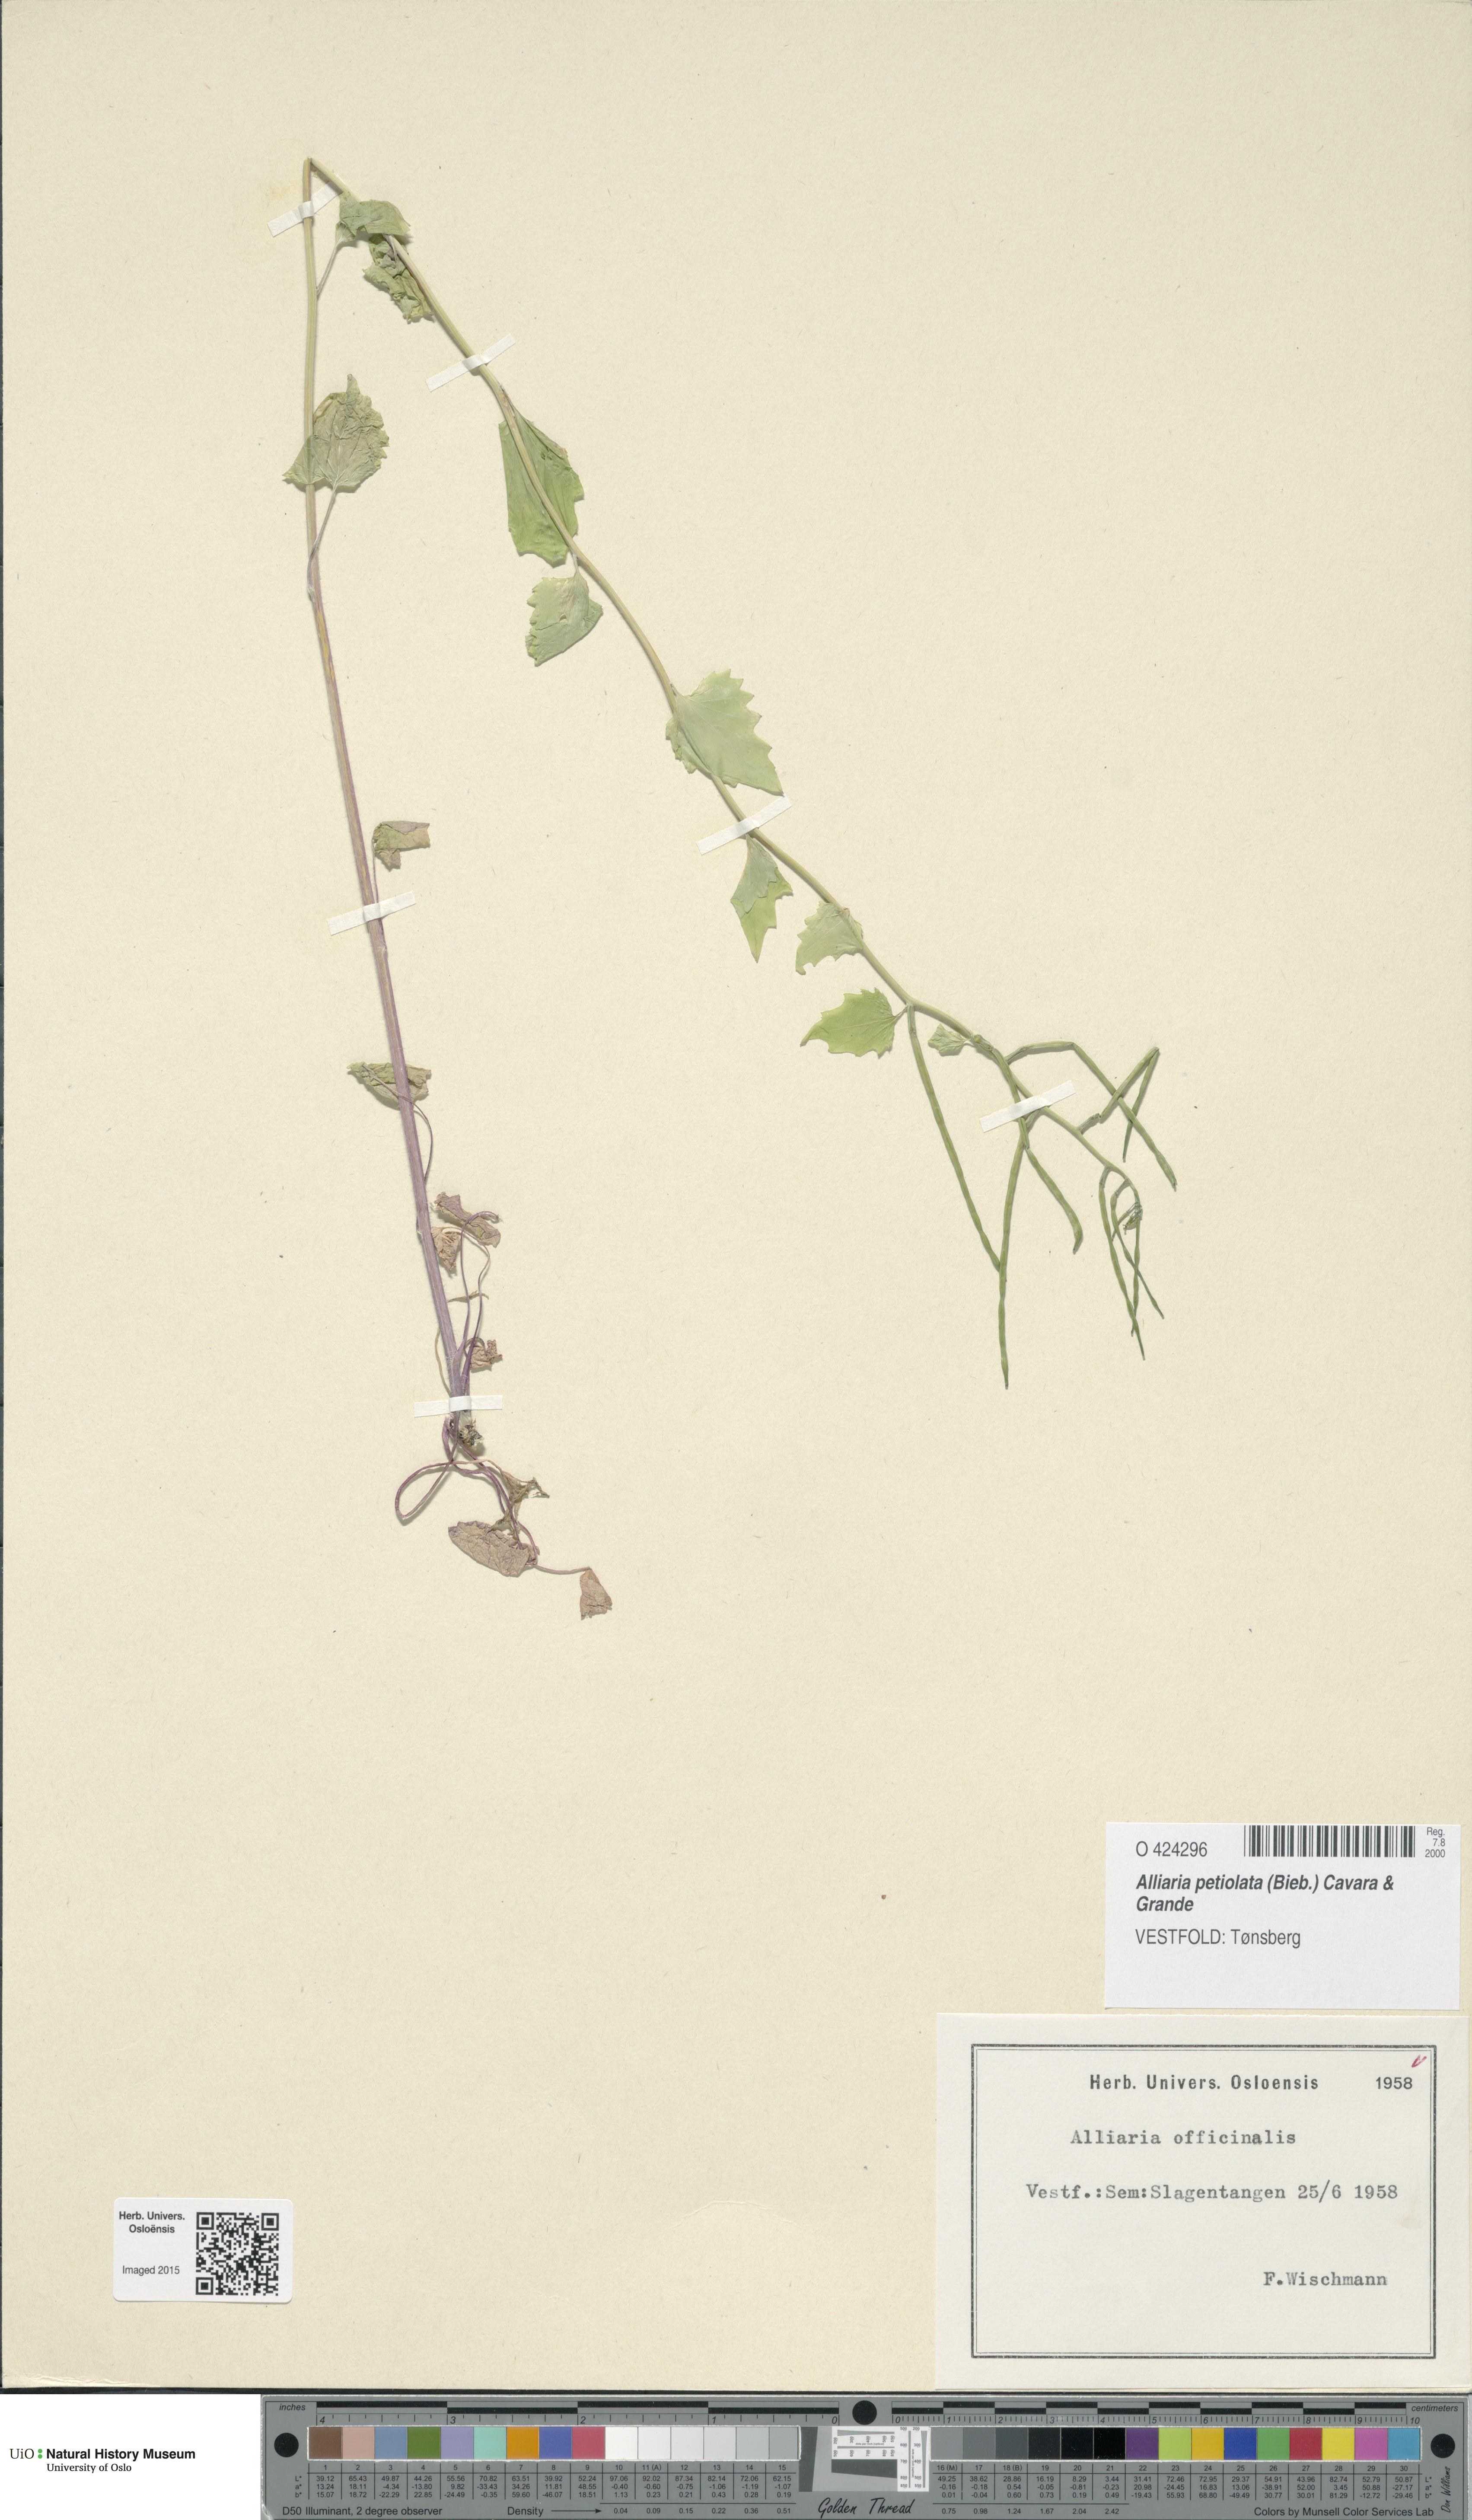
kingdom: Plantae
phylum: Tracheophyta
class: Magnoliopsida
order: Brassicales
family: Brassicaceae
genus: Alliaria
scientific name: Alliaria petiolata
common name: Garlic mustard
